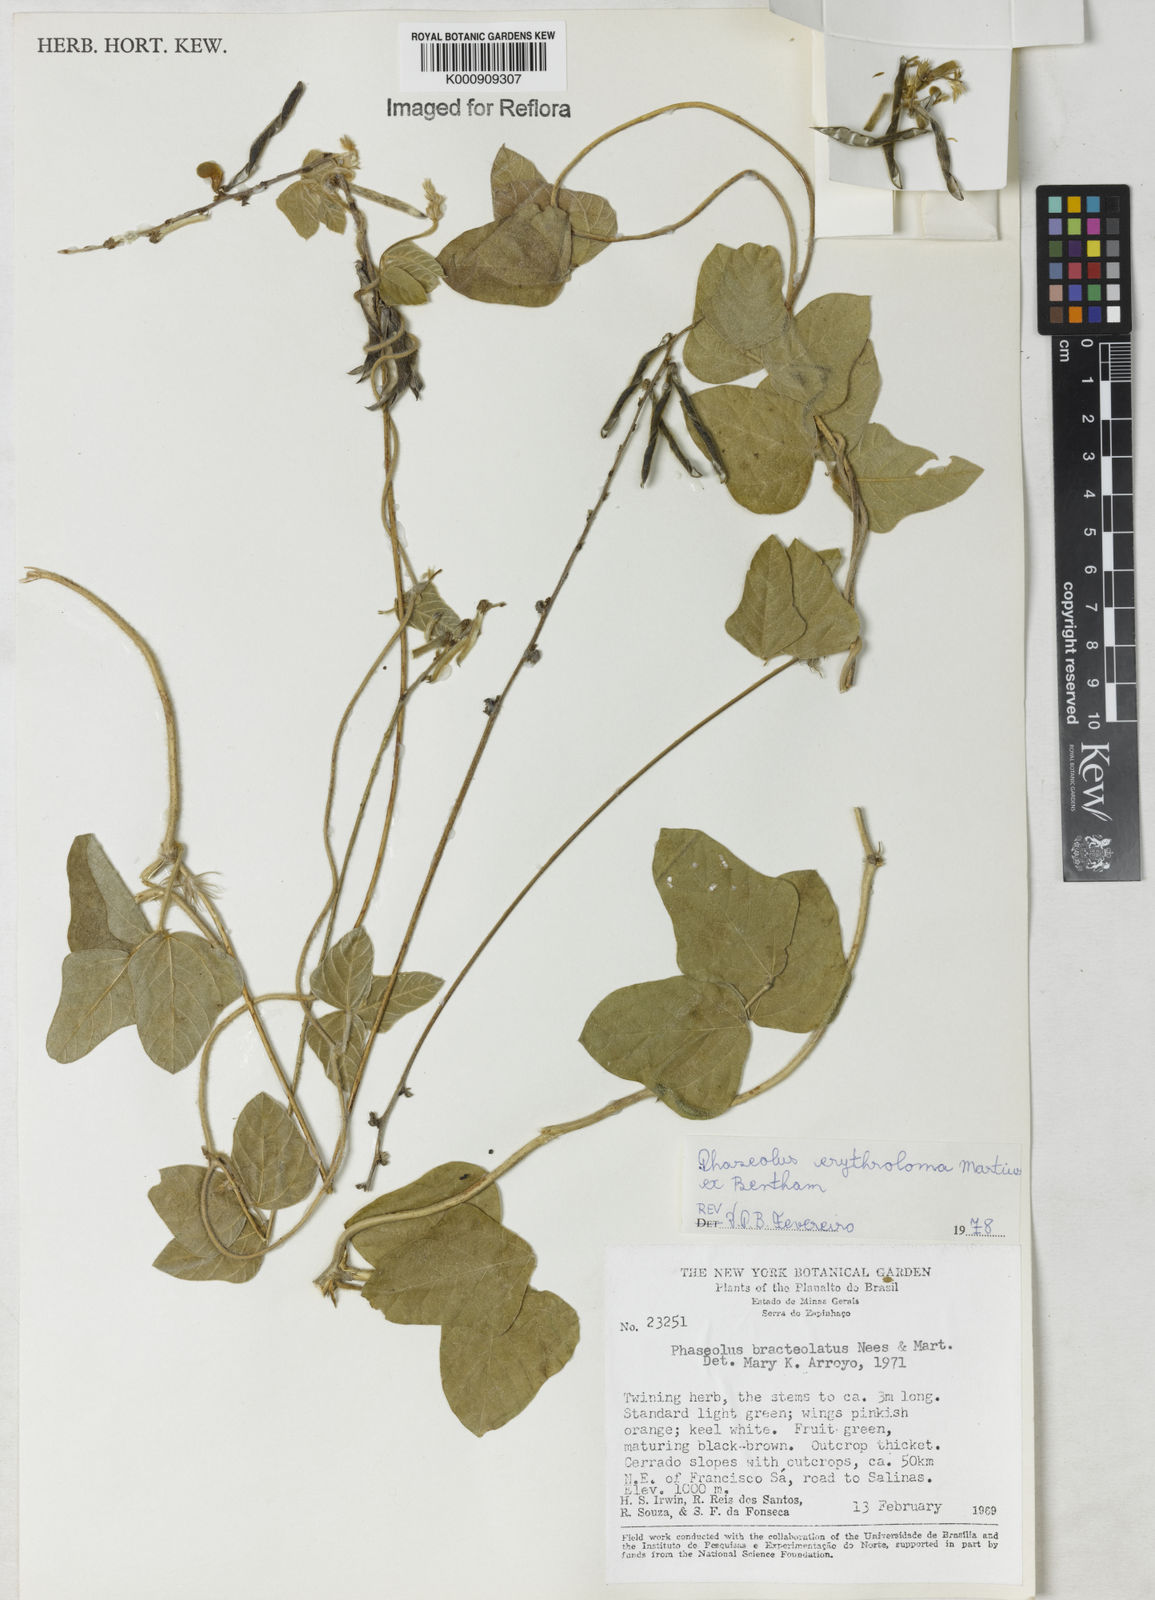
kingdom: Plantae
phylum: Tracheophyta
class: Magnoliopsida
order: Fabales
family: Fabaceae
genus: Macroptilium
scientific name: Macroptilium erythroloma
